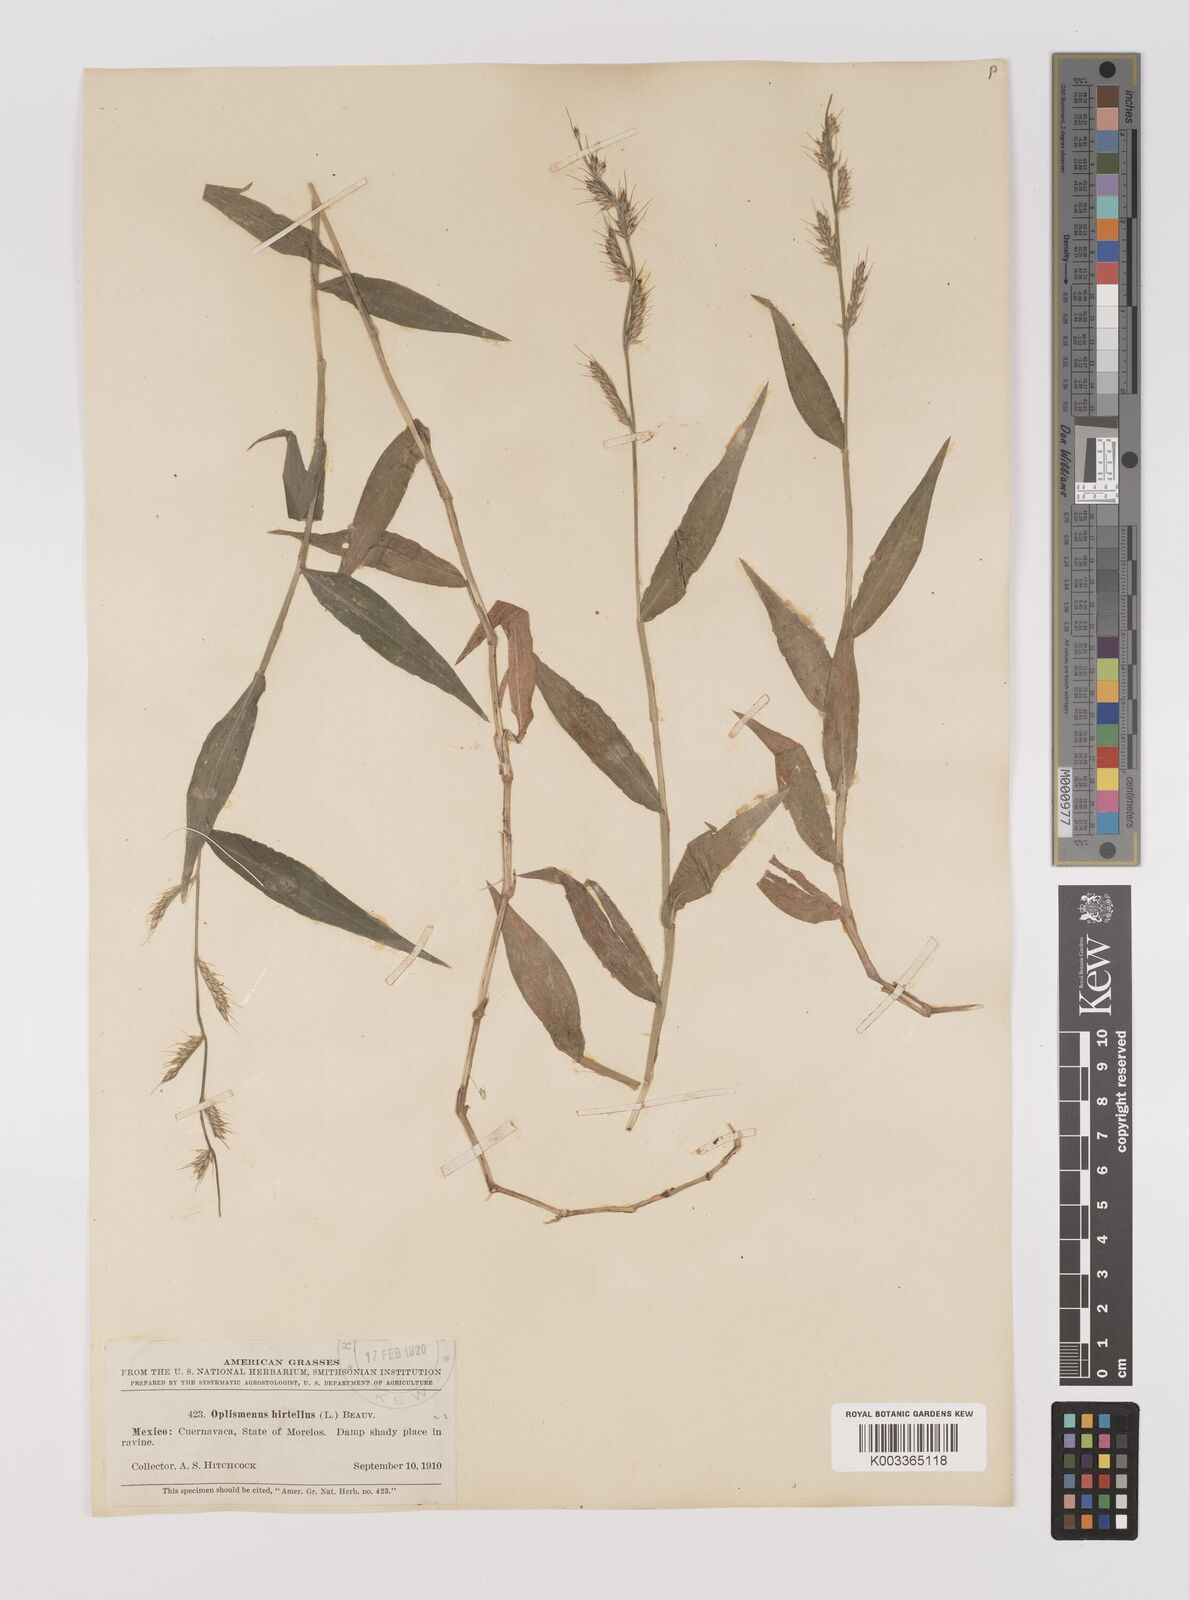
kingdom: Plantae
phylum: Tracheophyta
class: Liliopsida
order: Poales
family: Poaceae
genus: Oplismenus
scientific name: Oplismenus hirtellus
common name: Basketgrass
